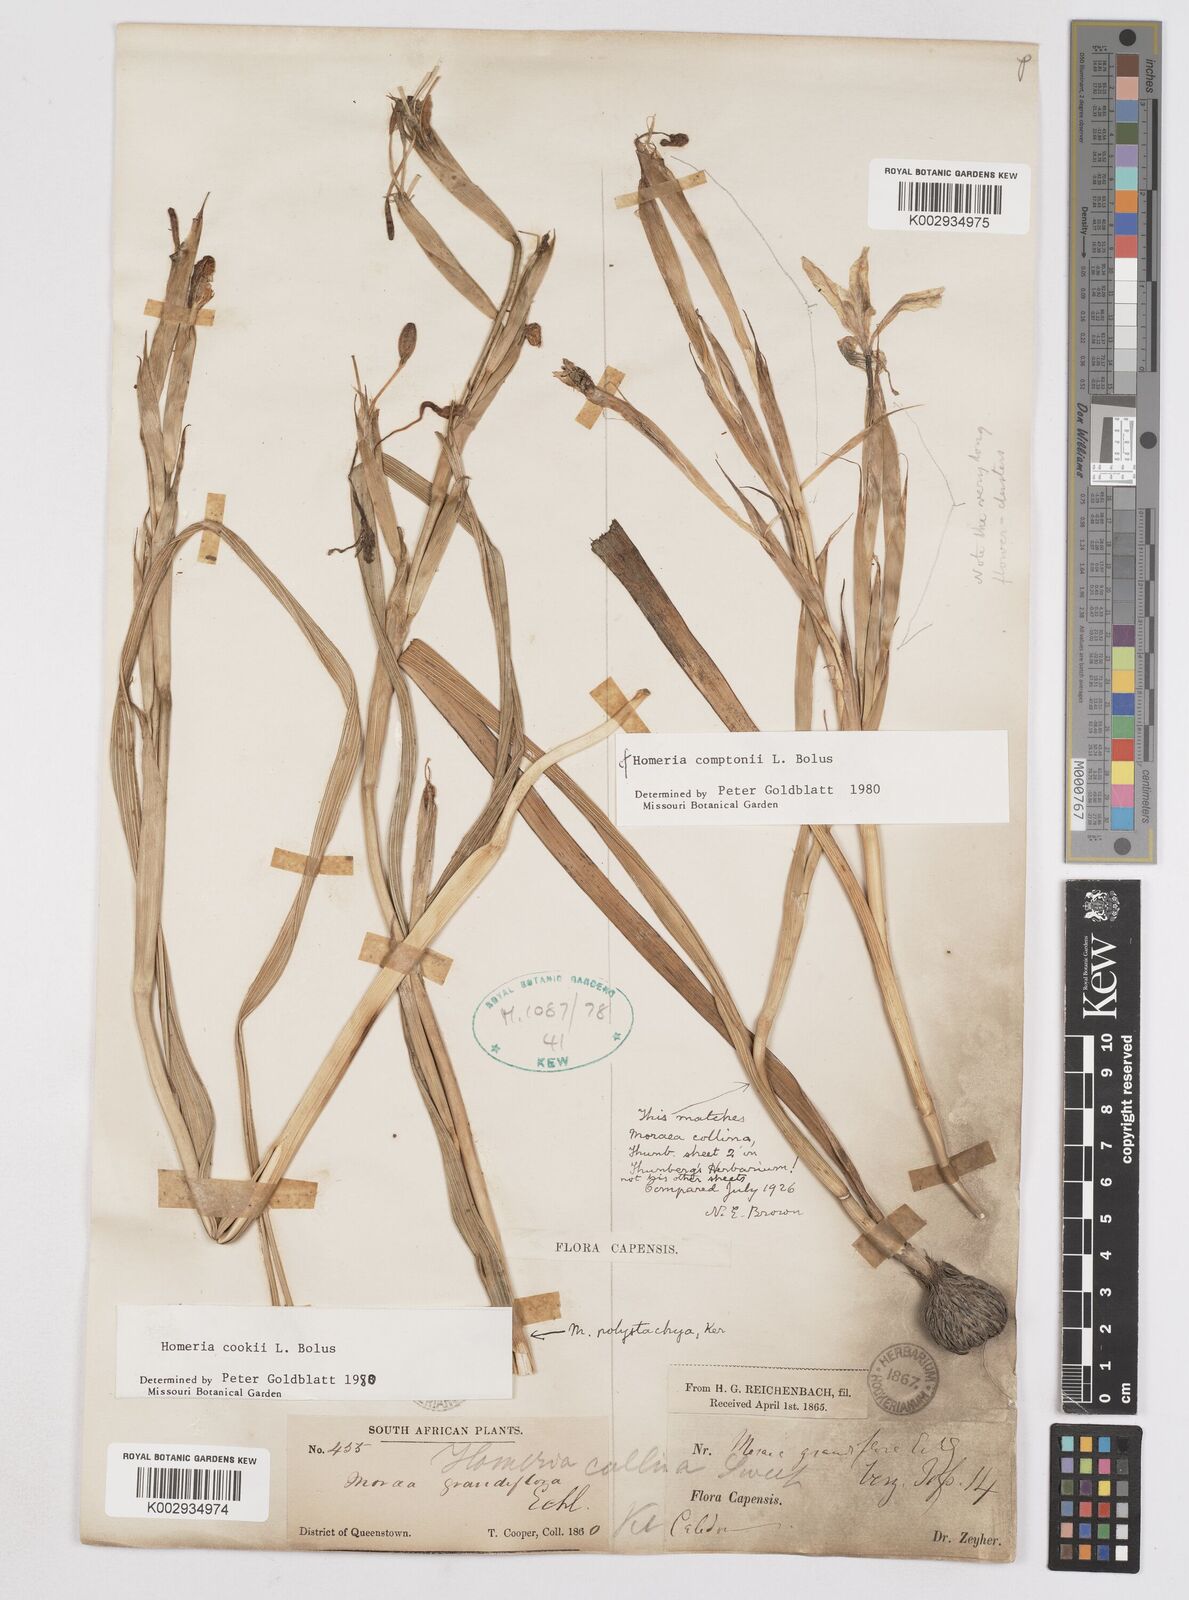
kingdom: Plantae
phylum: Tracheophyta
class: Liliopsida
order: Asparagales
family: Iridaceae
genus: Moraea
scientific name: Moraea cookii
